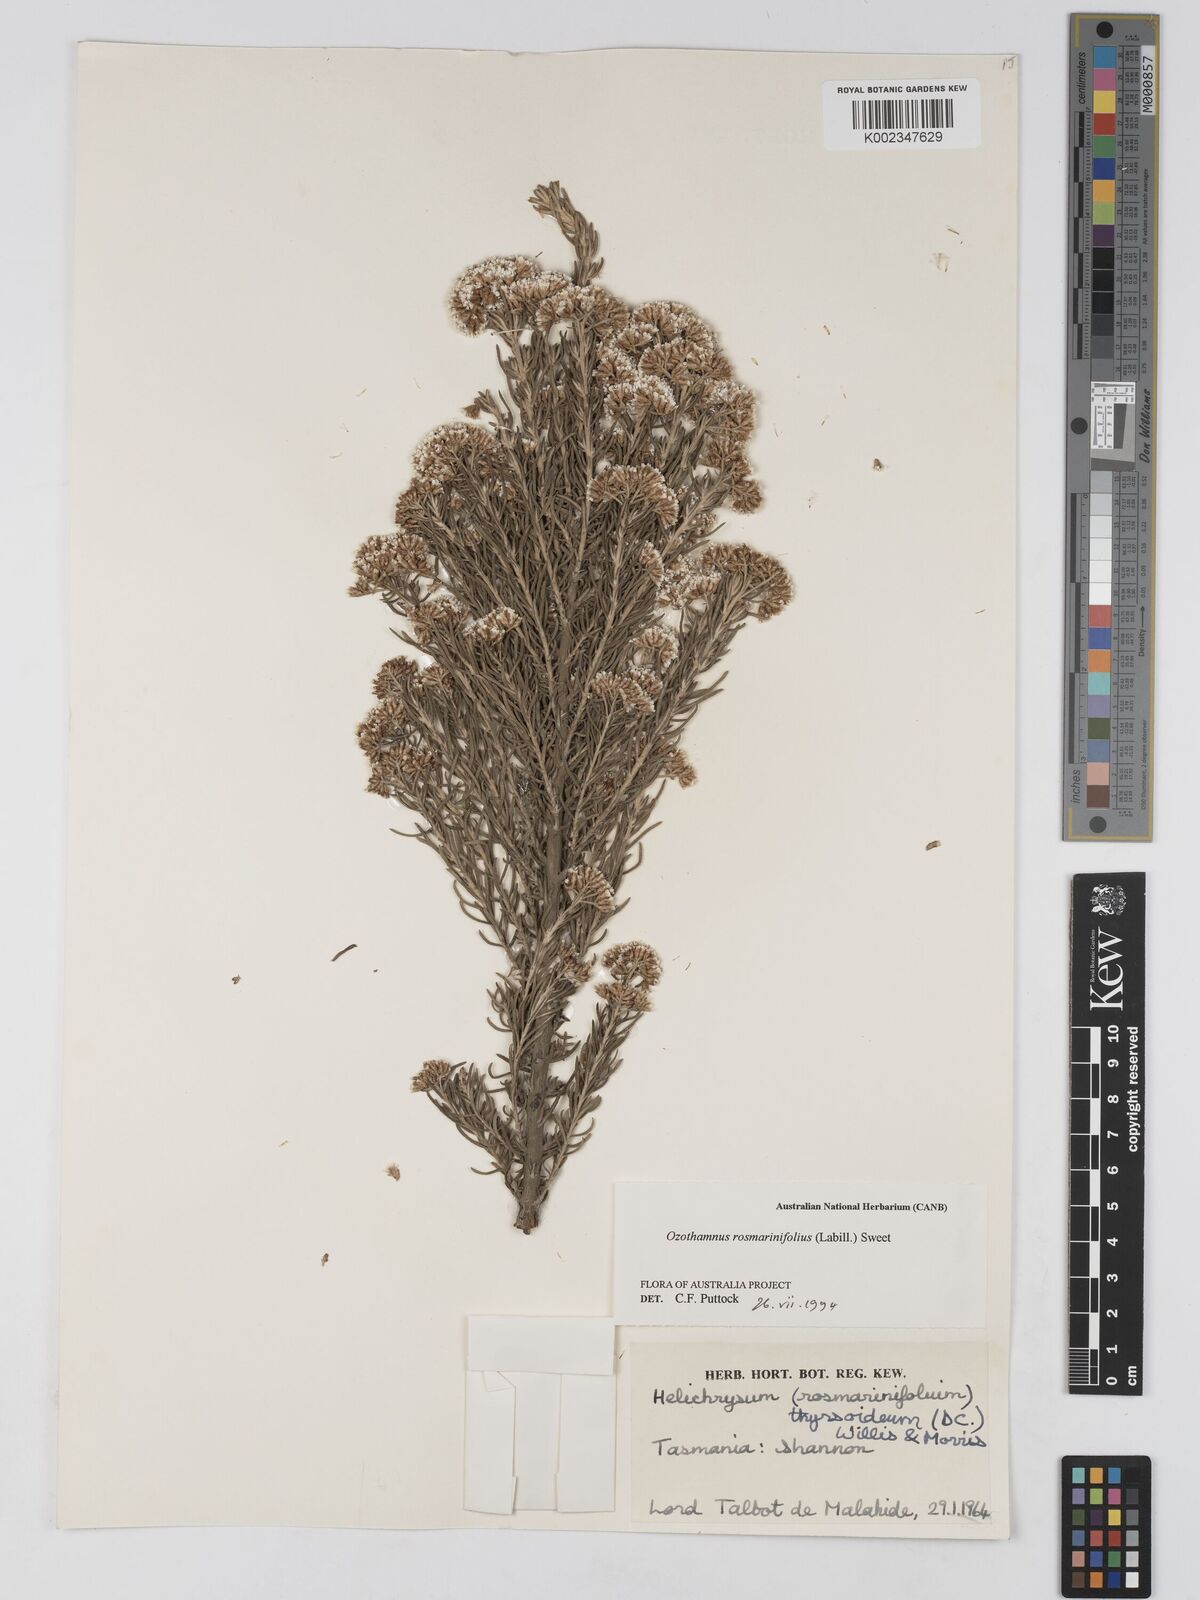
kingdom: Plantae
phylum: Tracheophyta
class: Magnoliopsida
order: Asterales
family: Asteraceae
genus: Ozothamnus
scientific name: Ozothamnus rosmarinifolius
